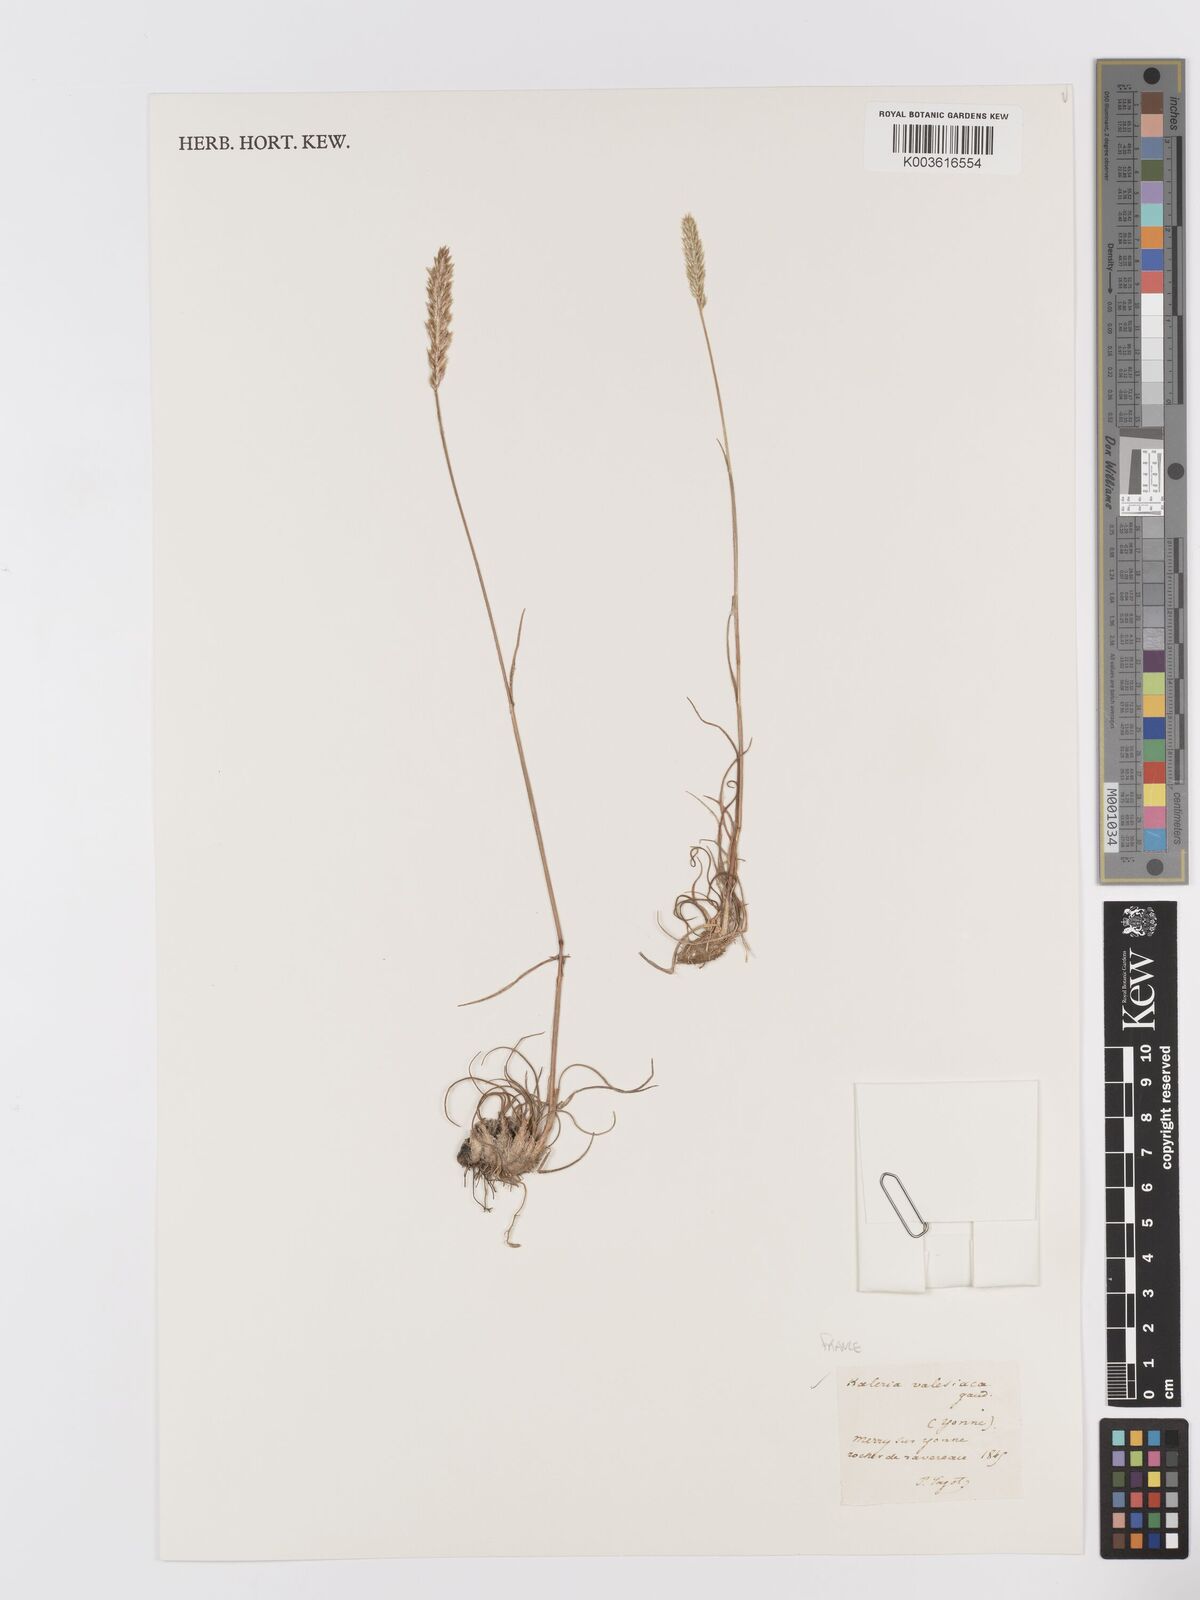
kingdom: Plantae
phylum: Tracheophyta
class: Liliopsida
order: Poales
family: Poaceae
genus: Koeleria
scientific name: Koeleria vallesiana
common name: Somerset hair-grass
